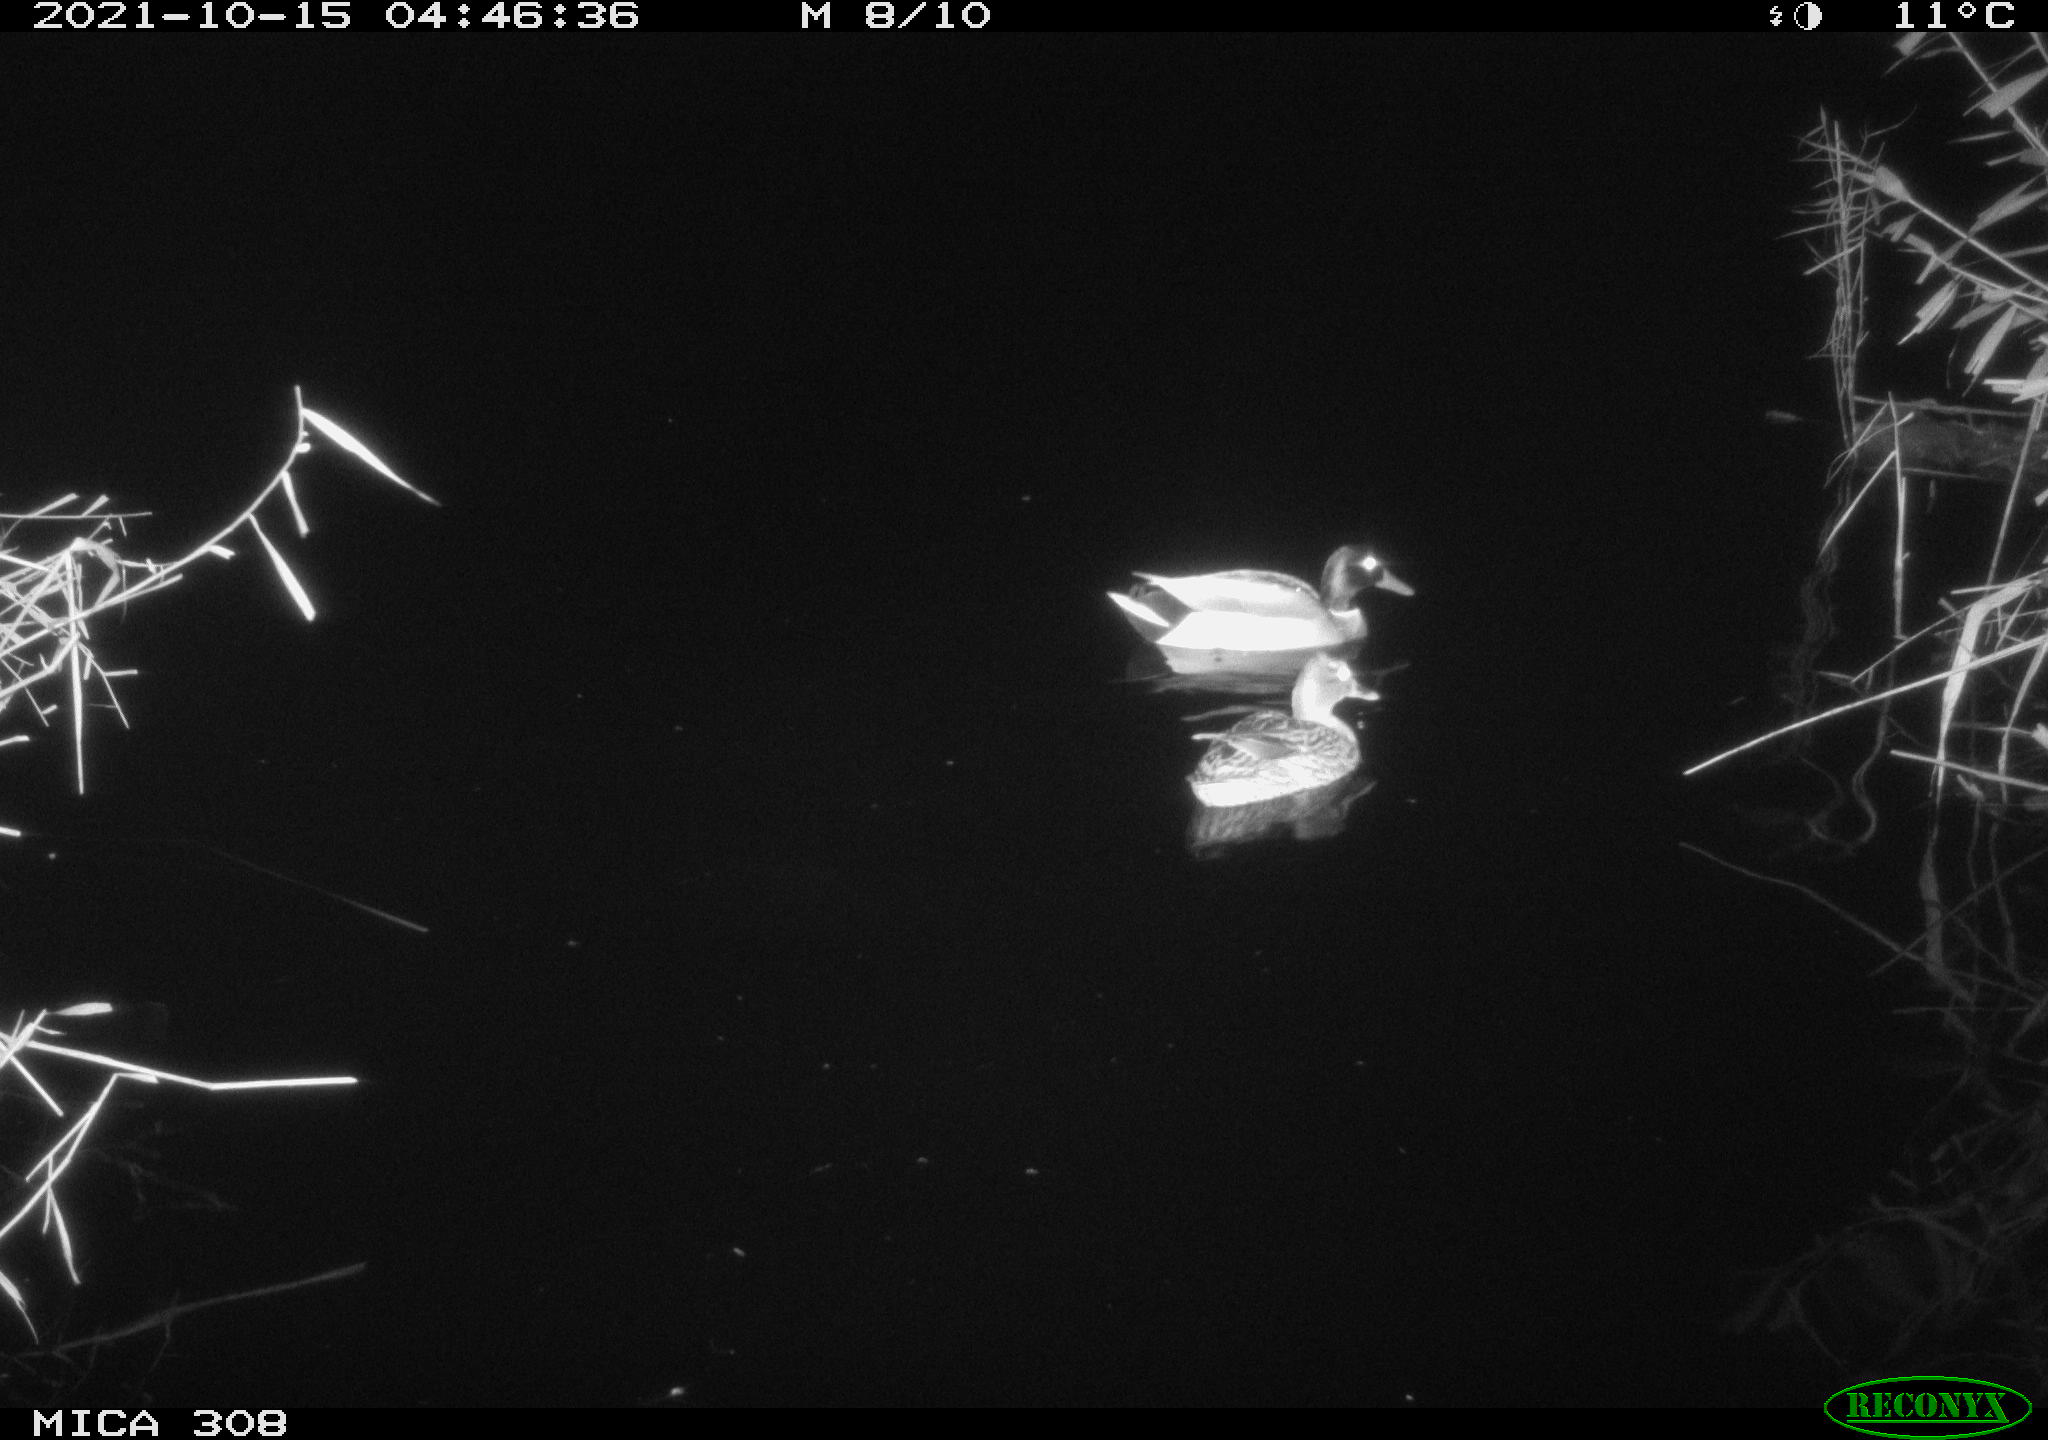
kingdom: Animalia
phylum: Chordata
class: Aves
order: Anseriformes
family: Anatidae
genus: Anas
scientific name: Anas platyrhynchos
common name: Mallard
